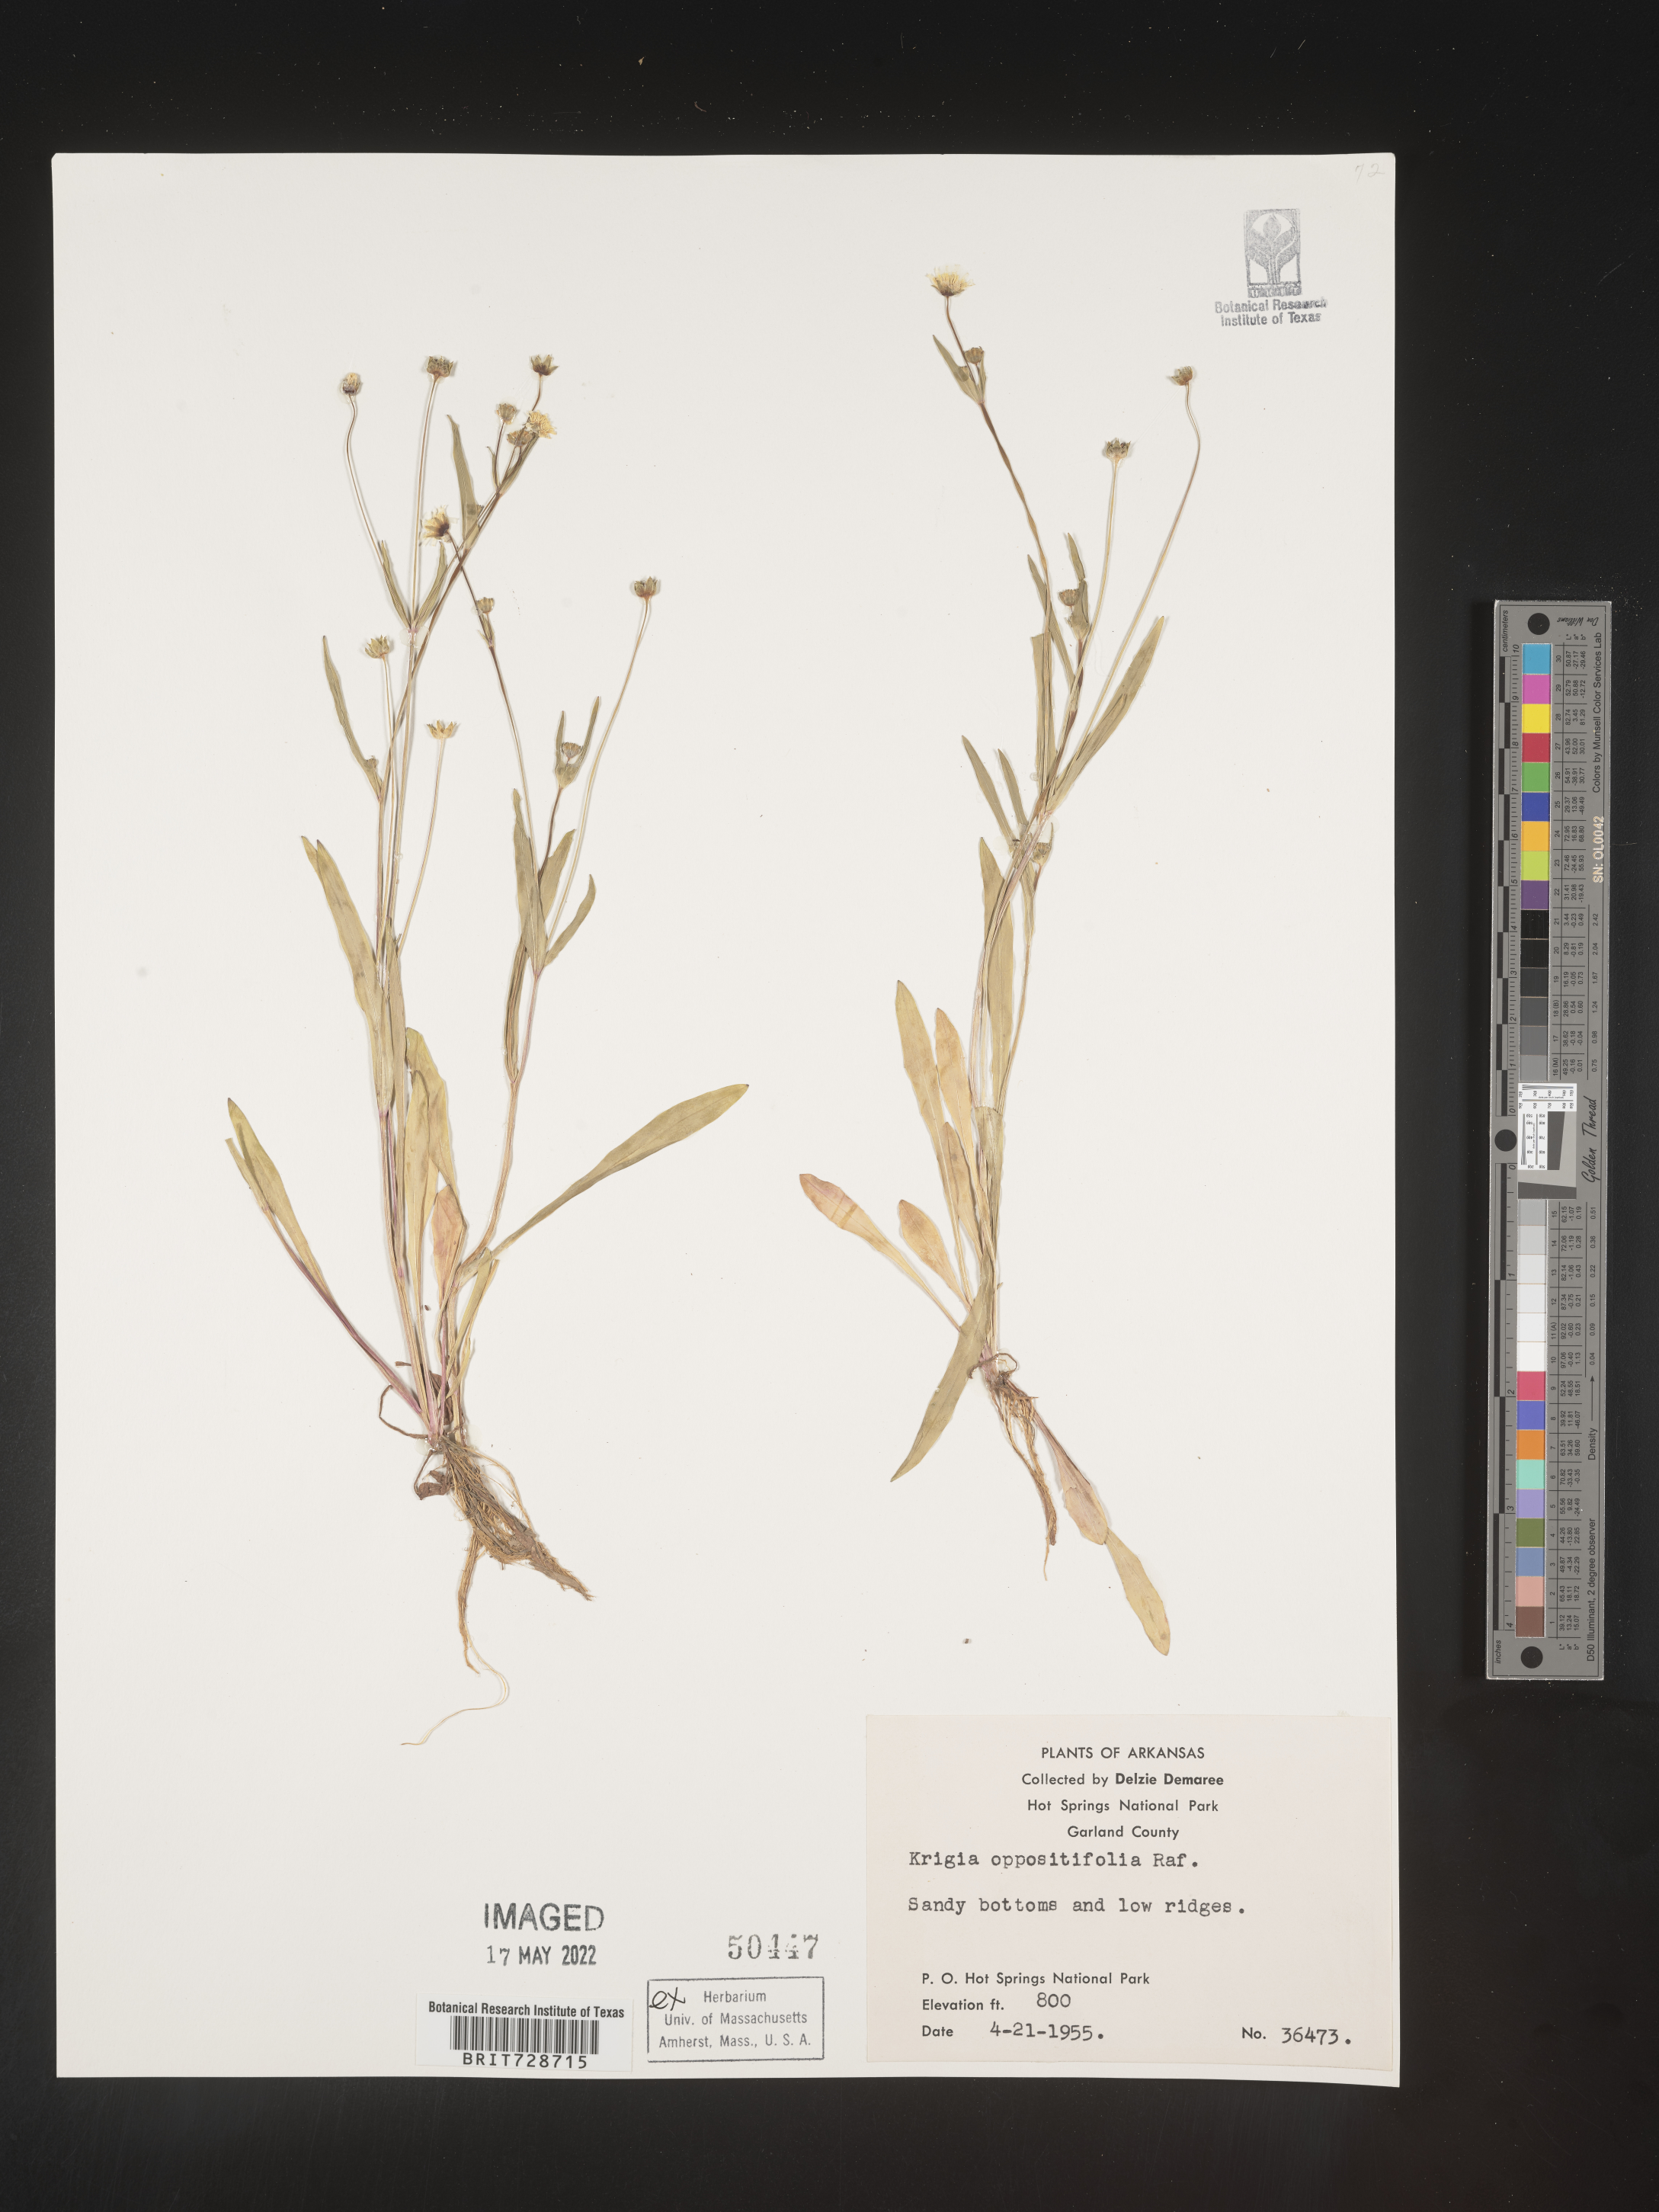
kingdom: Plantae
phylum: Tracheophyta
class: Magnoliopsida
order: Asterales
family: Asteraceae
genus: Krigia
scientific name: Krigia cespitosa
